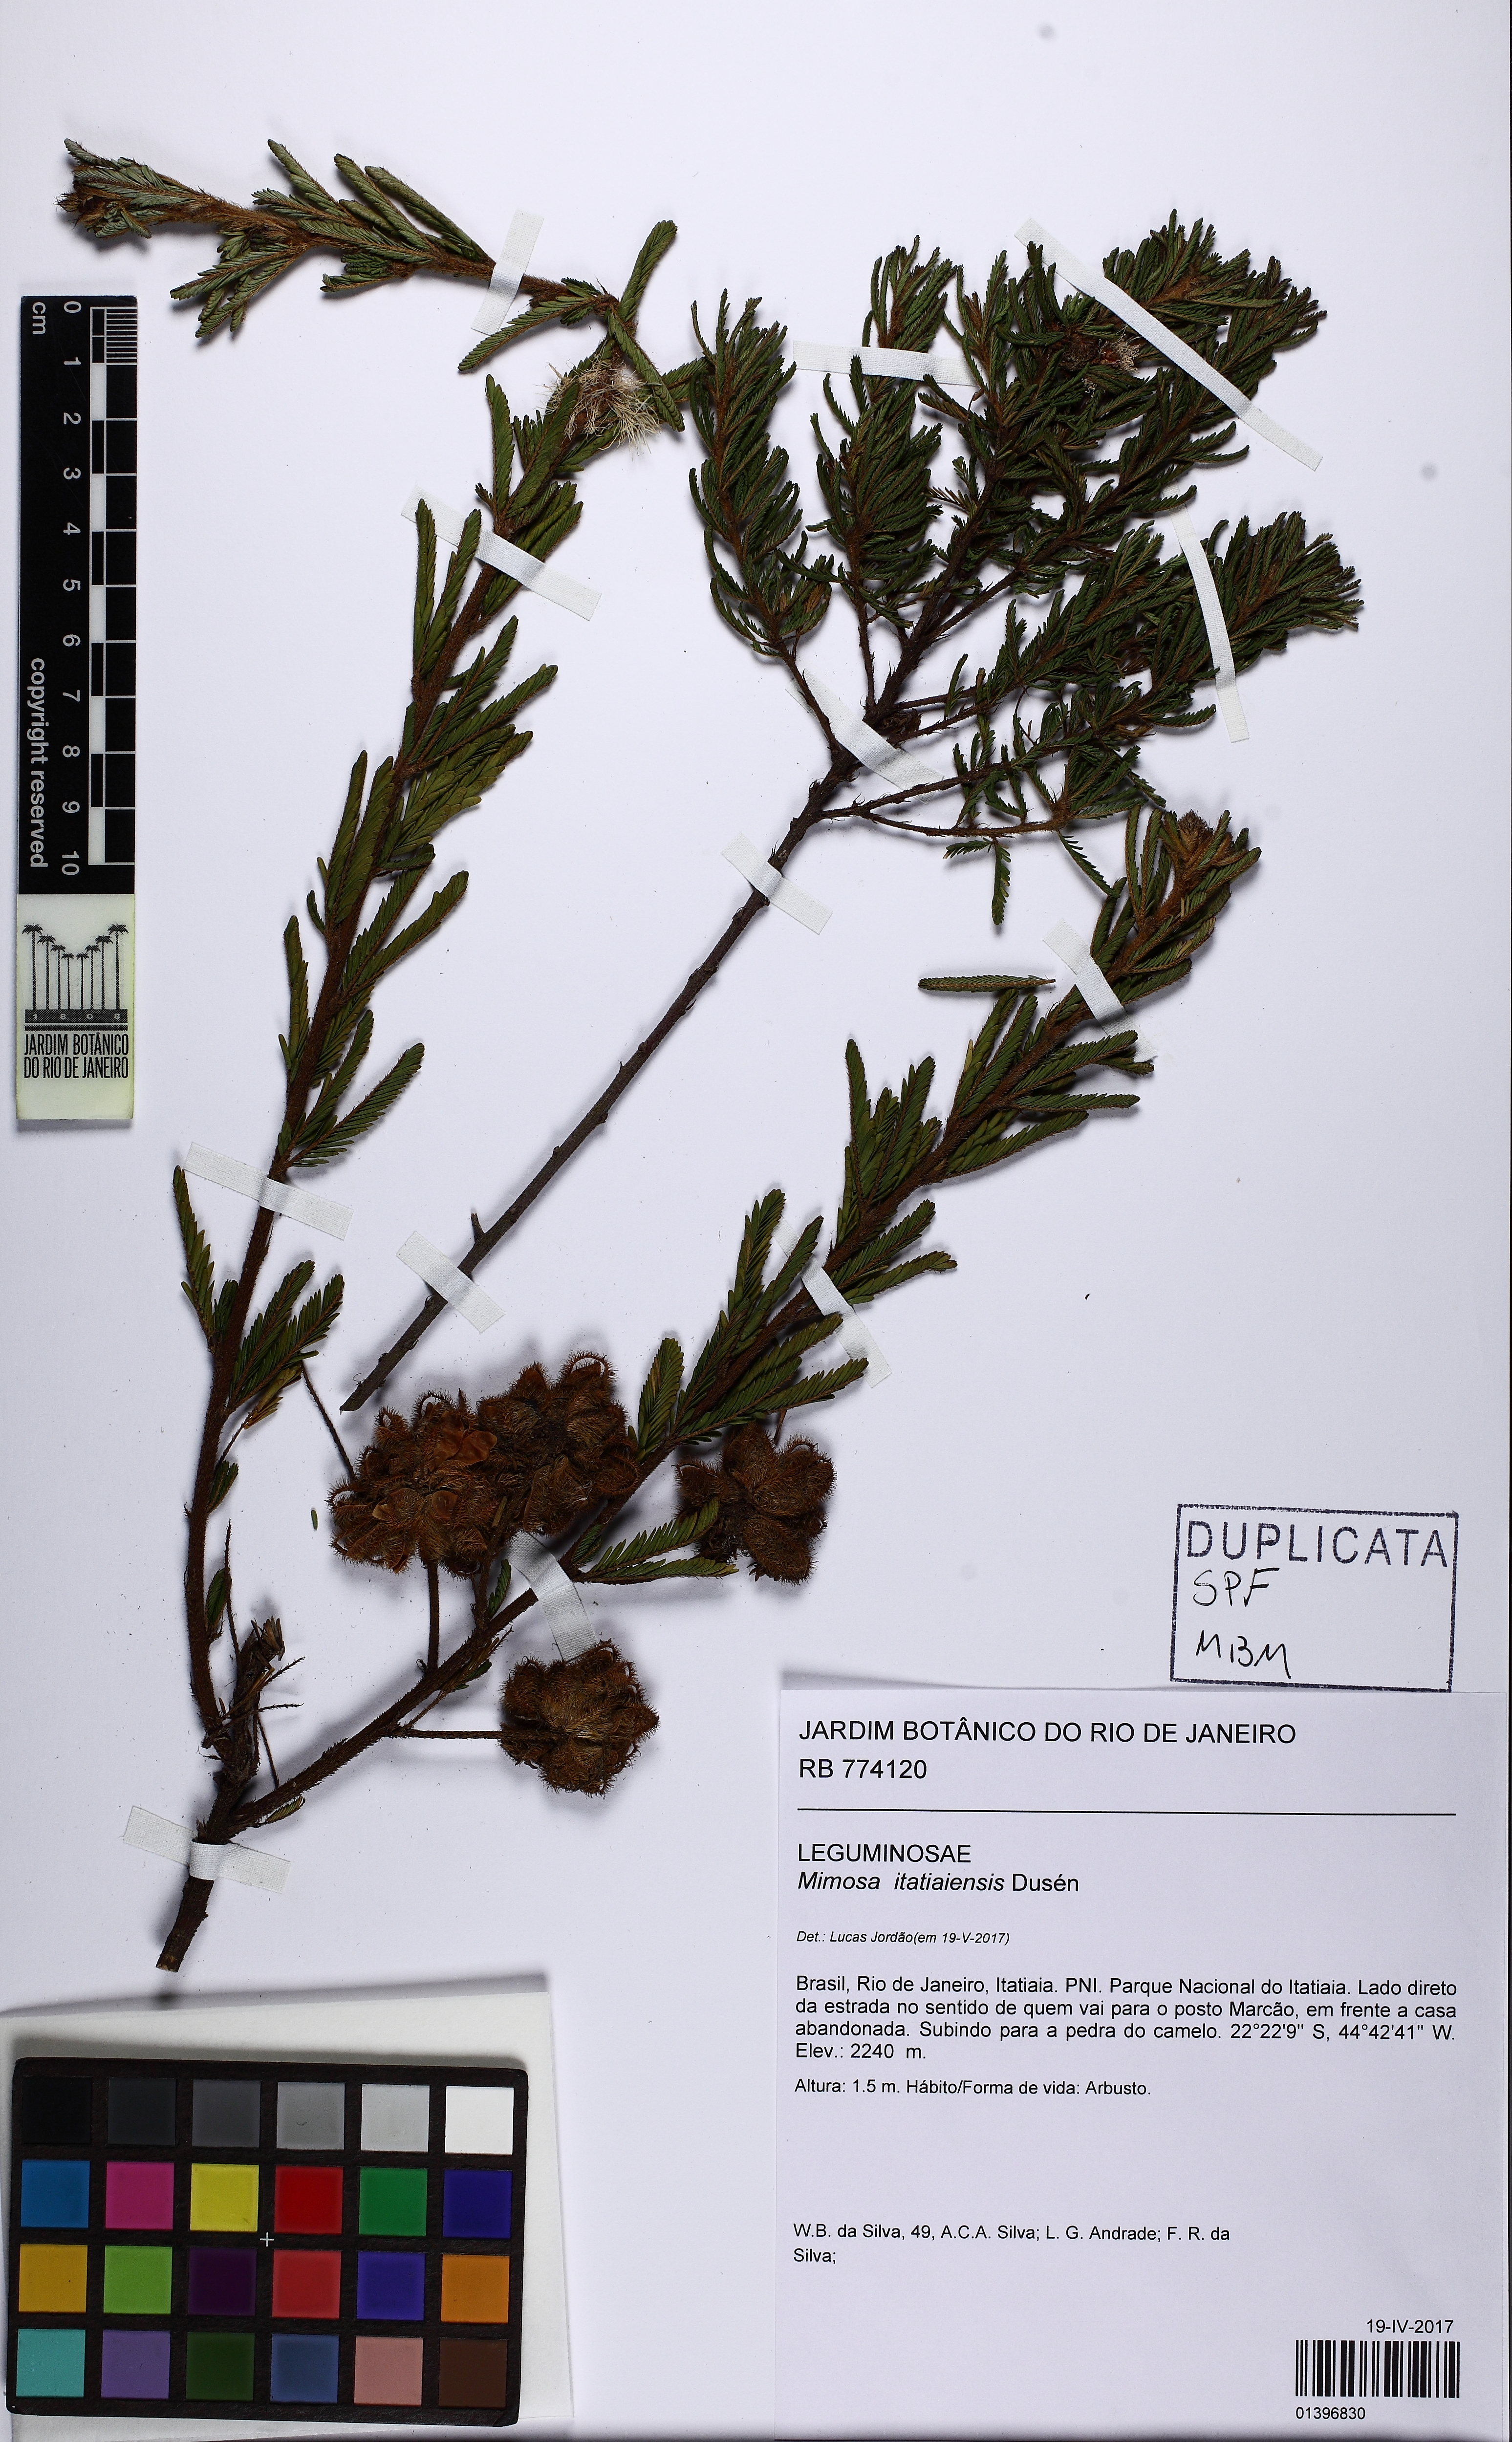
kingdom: Plantae
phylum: Tracheophyta
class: Magnoliopsida
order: Fabales
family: Fabaceae
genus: Mimosa
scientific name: Mimosa itatiaiensis
